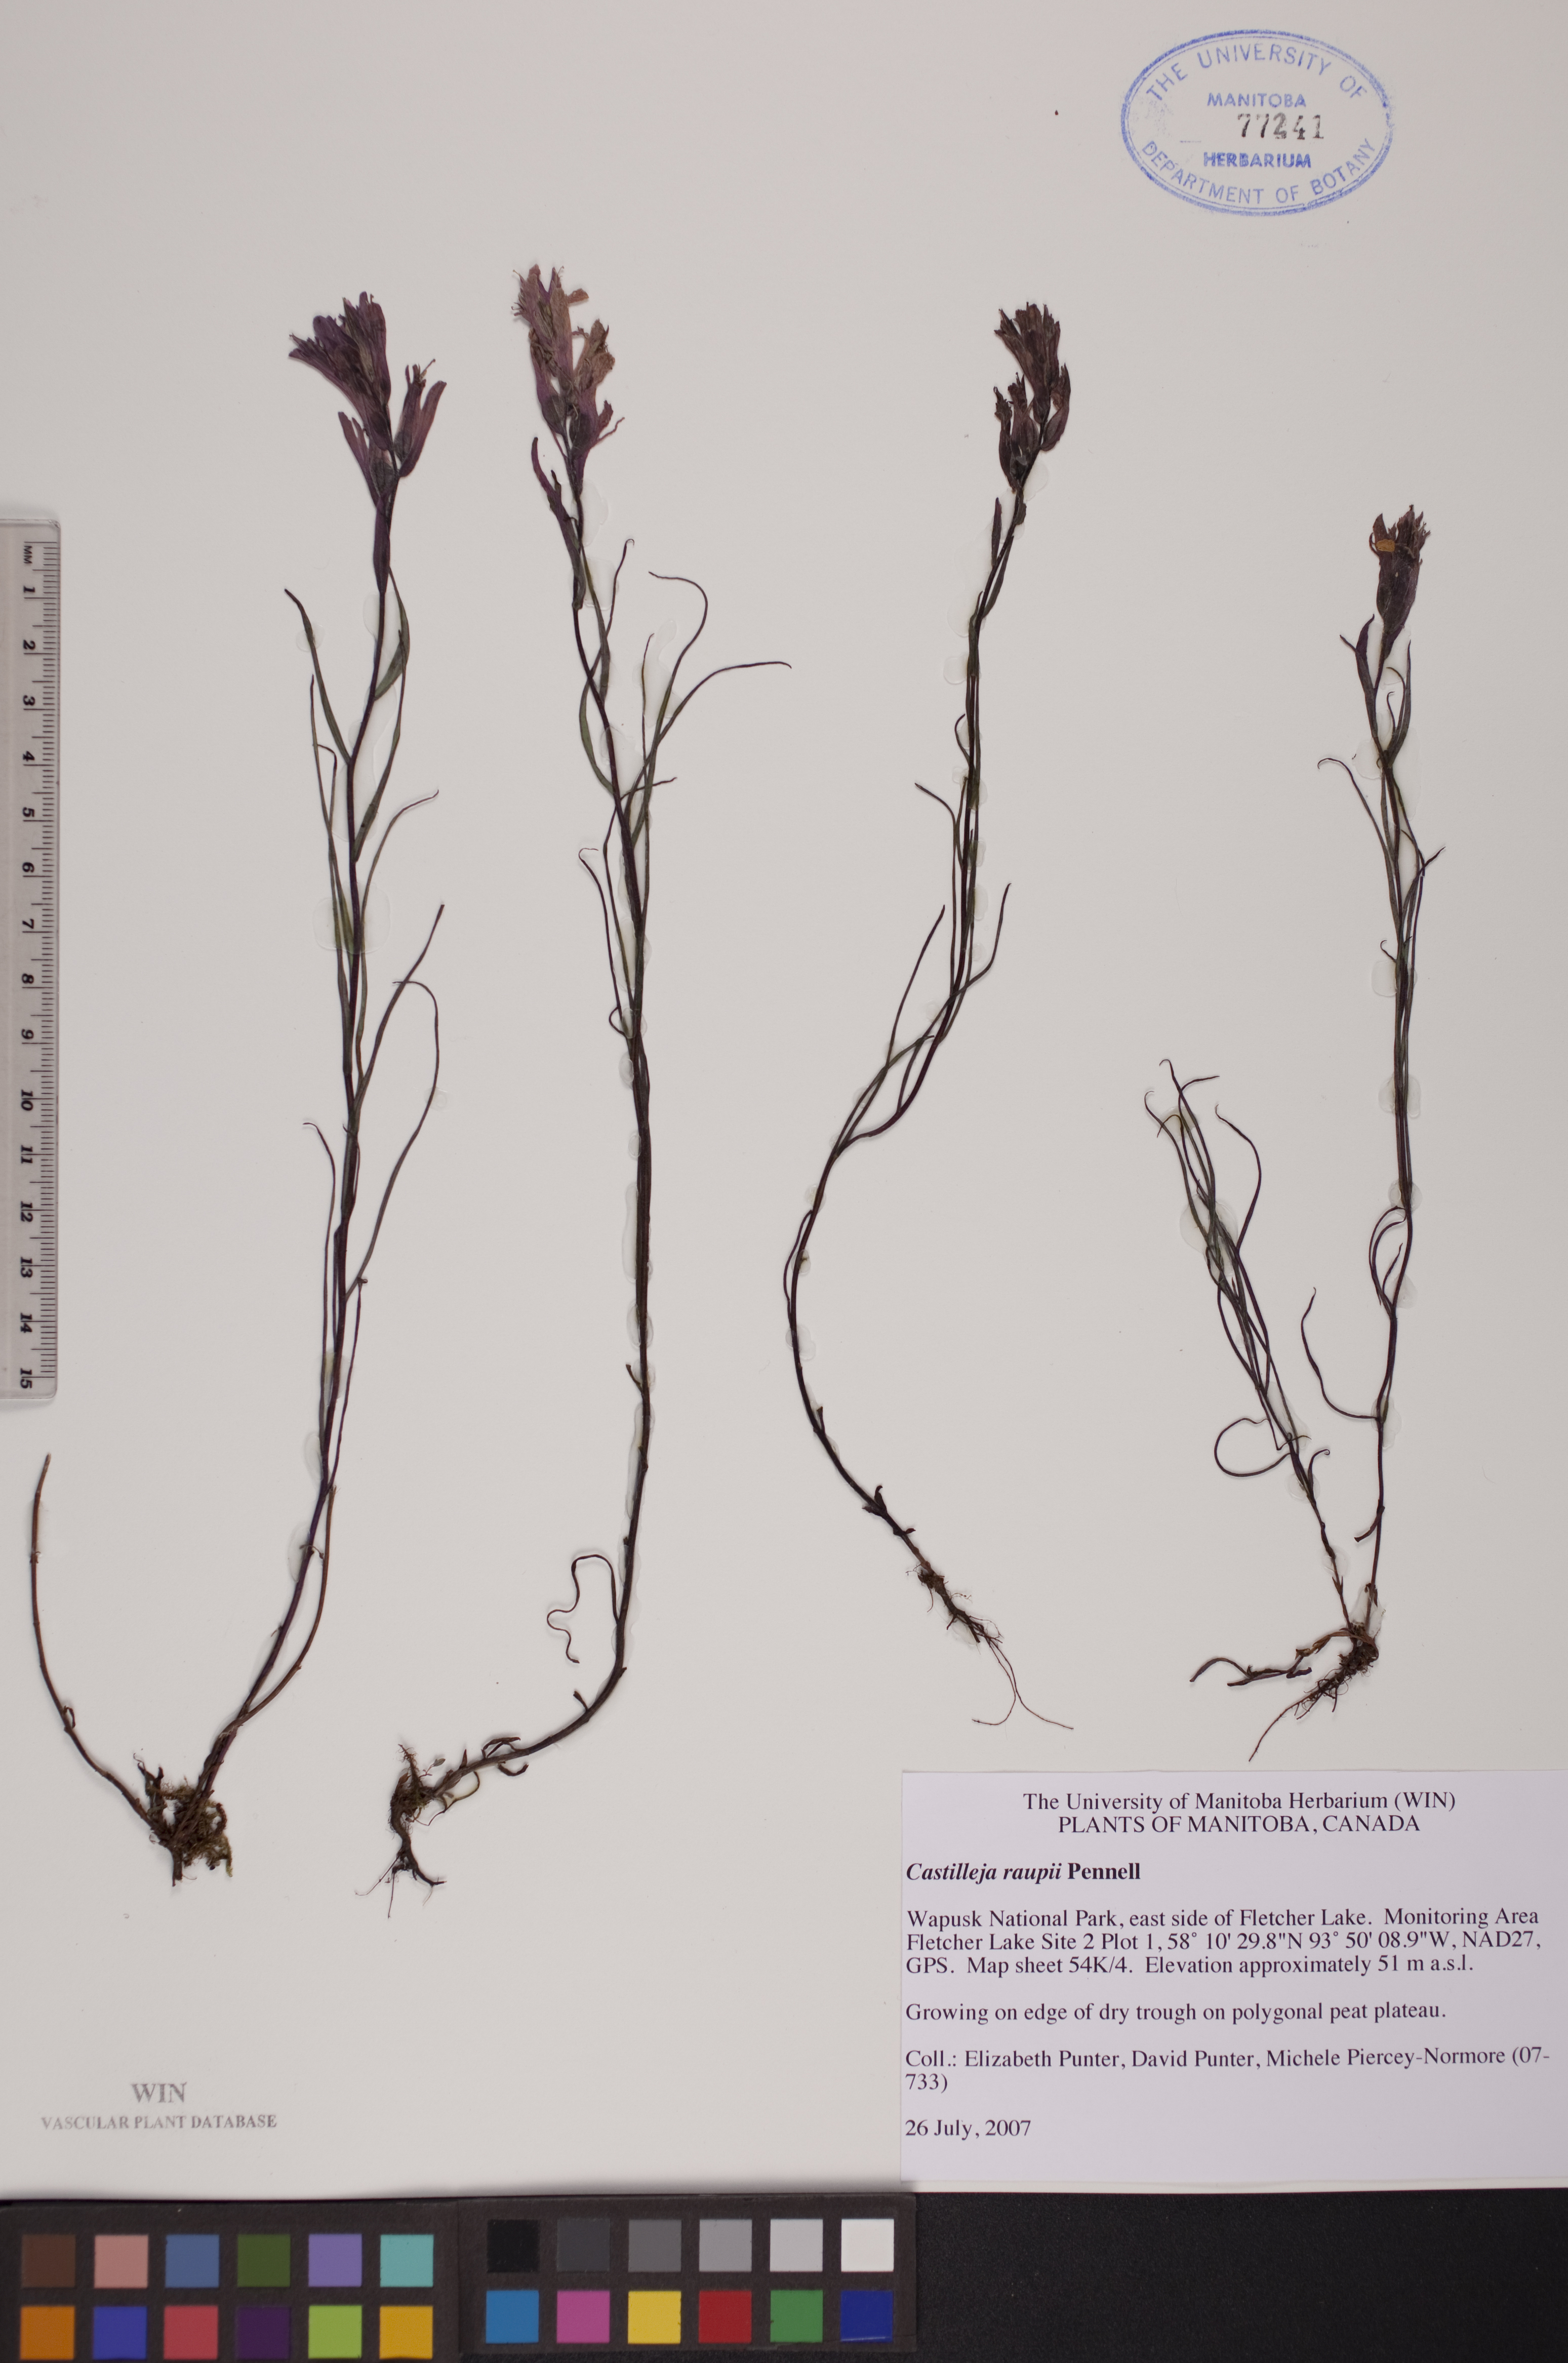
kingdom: Plantae
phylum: Tracheophyta
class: Magnoliopsida
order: Lamiales
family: Orobanchaceae
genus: Castilleja
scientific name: Castilleja raupii
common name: Raup's paintbrush
